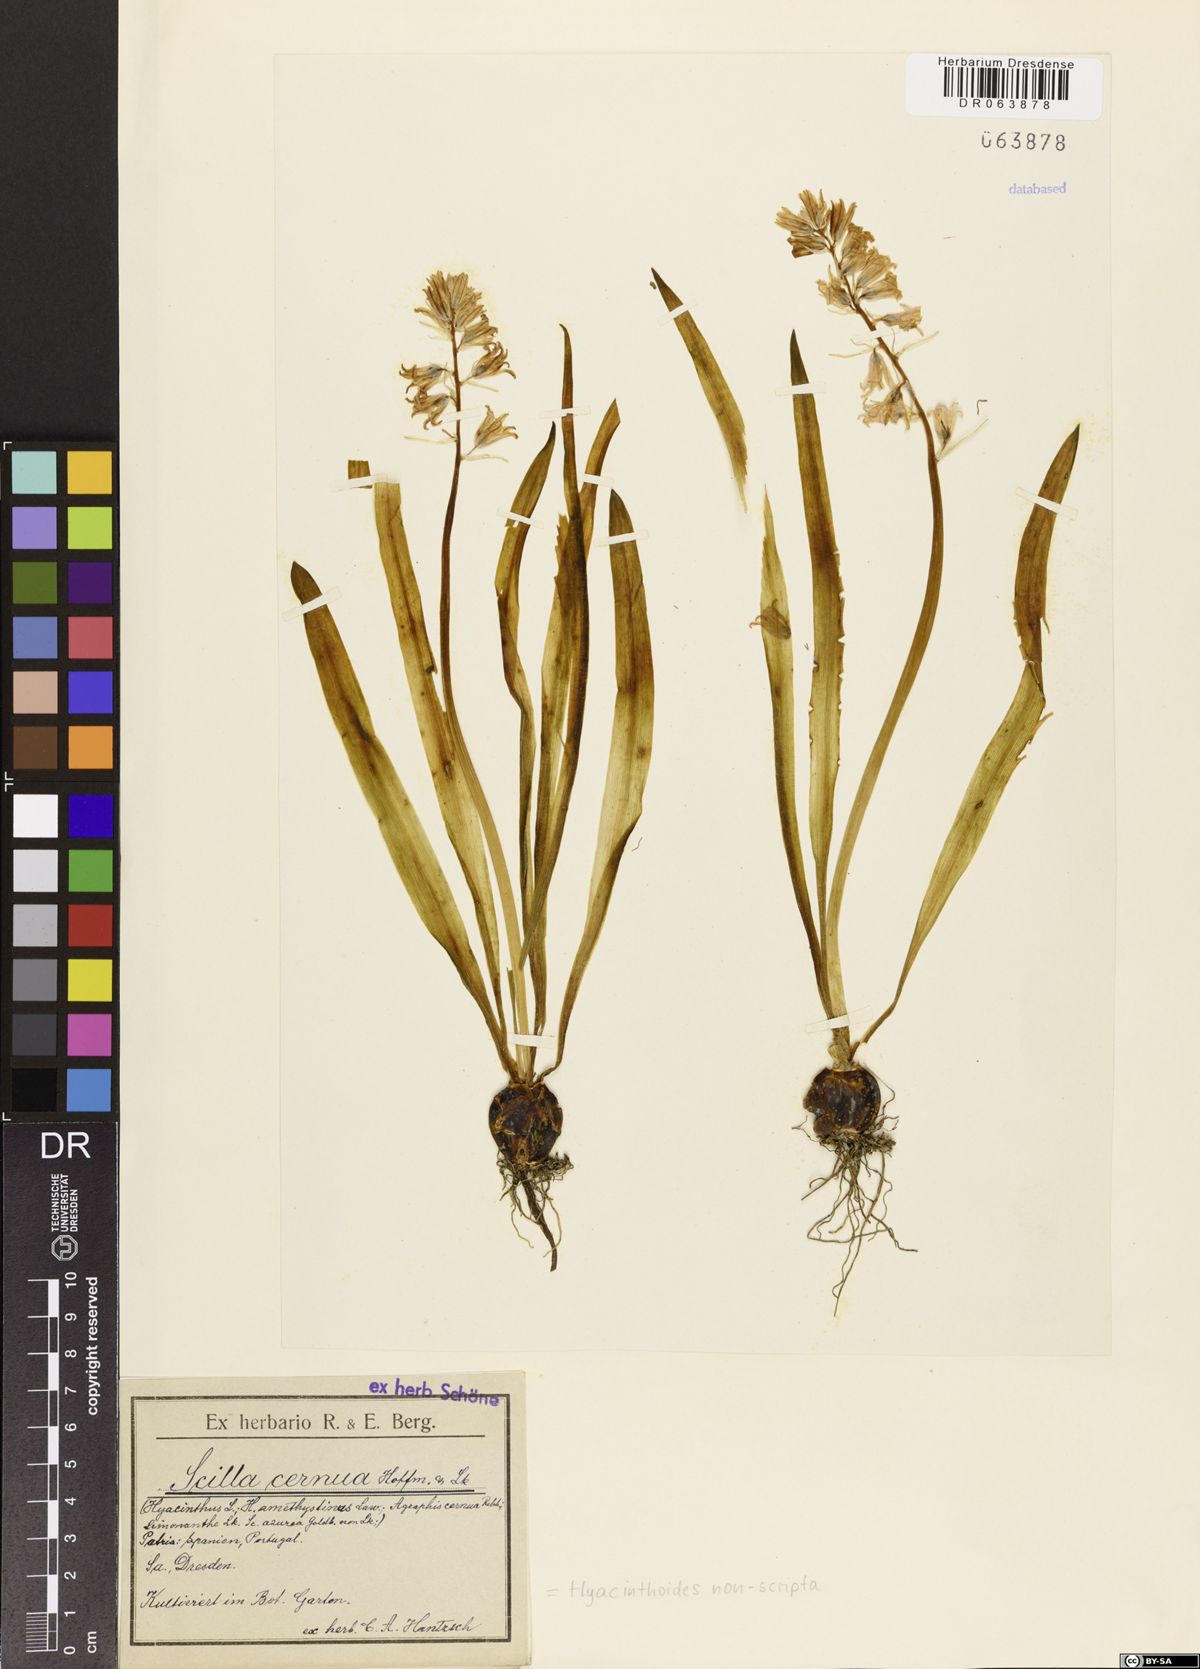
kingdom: Plantae
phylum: Tracheophyta
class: Liliopsida
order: Asparagales
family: Asparagaceae
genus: Hyacinthoides
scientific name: Hyacinthoides non-scripta
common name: Bluebell
